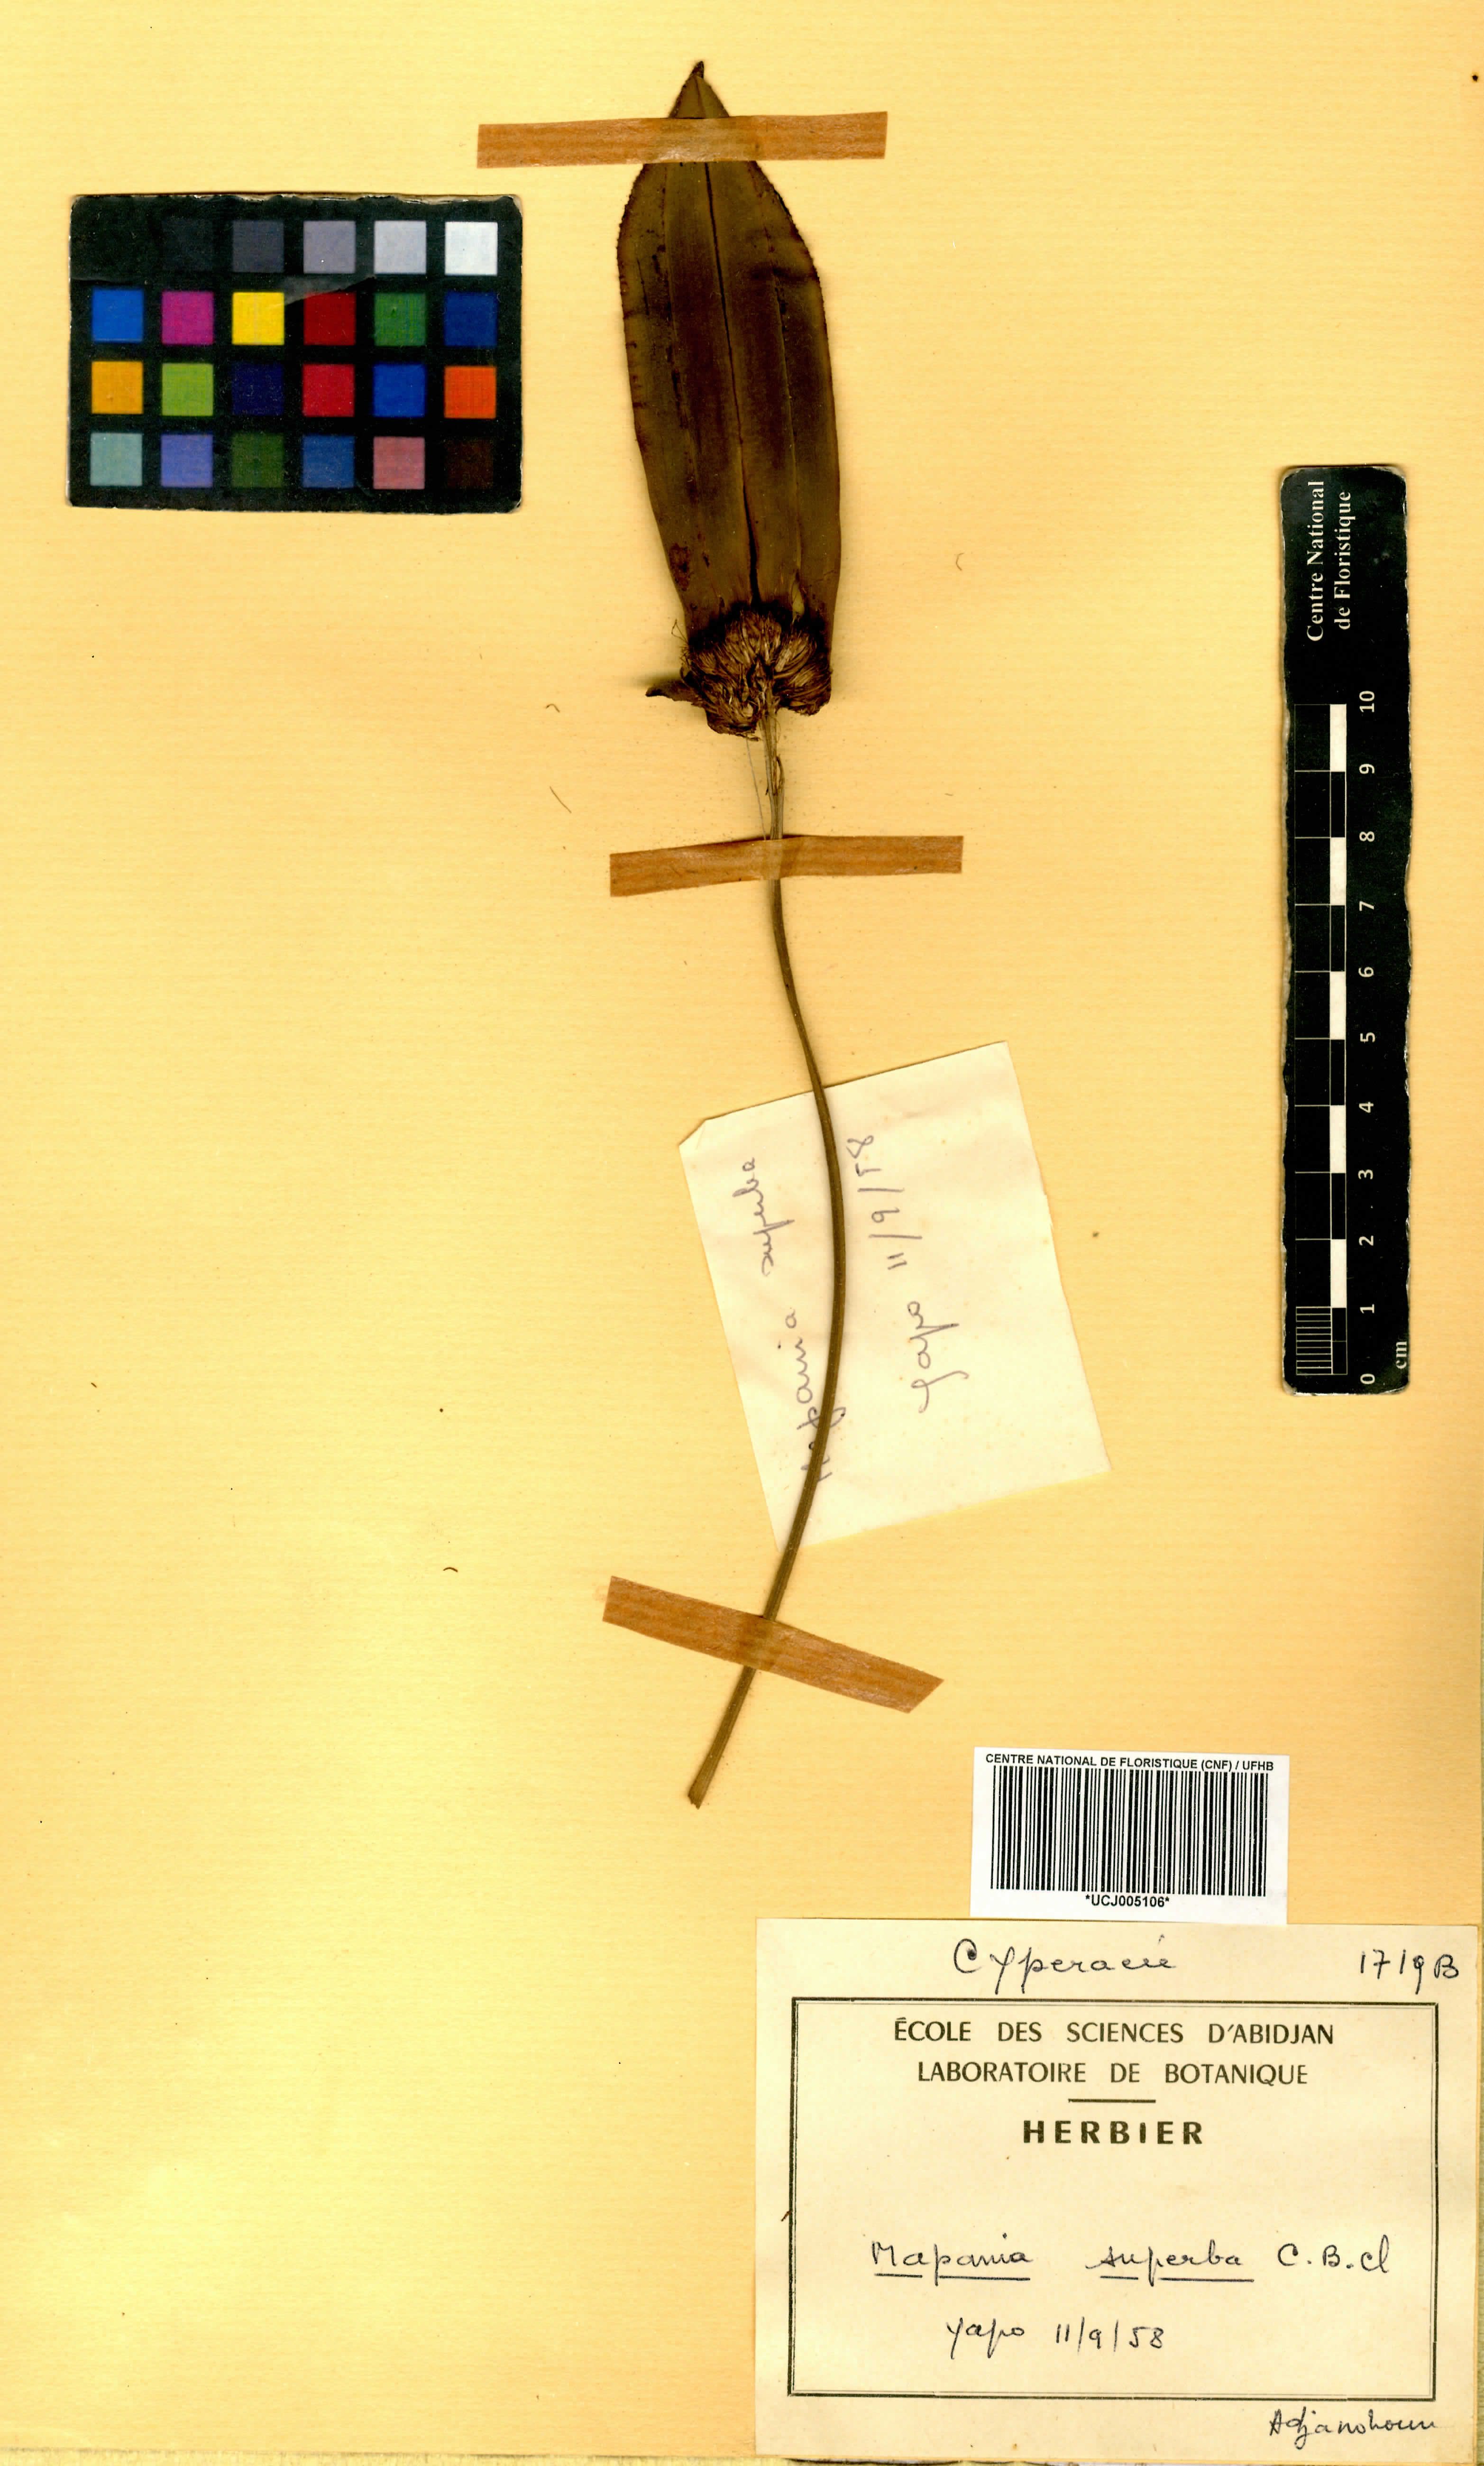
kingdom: Plantae
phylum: Tracheophyta
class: Liliopsida
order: Poales
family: Cyperaceae
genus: Mapania
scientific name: Mapania macrantha
